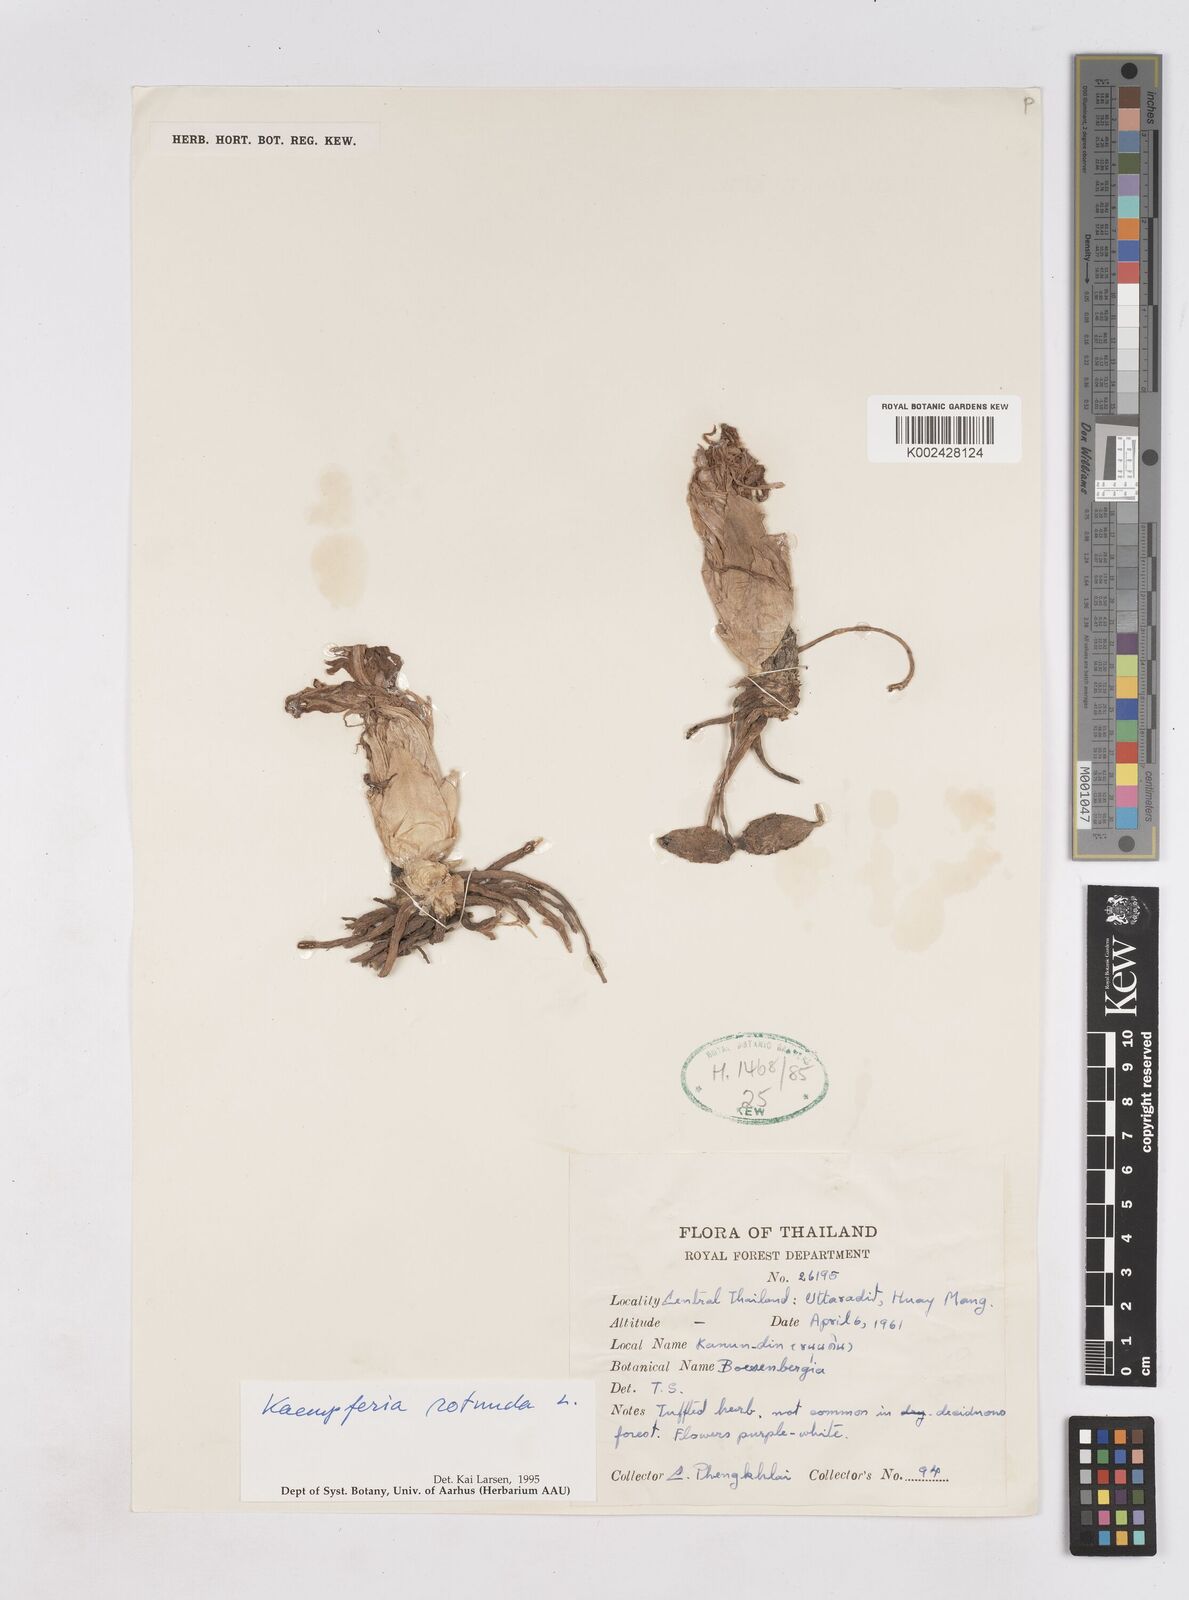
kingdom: Plantae
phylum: Tracheophyta
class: Liliopsida
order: Zingiberales
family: Zingiberaceae
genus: Kaempferia
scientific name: Kaempferia rotunda
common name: Tropical-crocus
